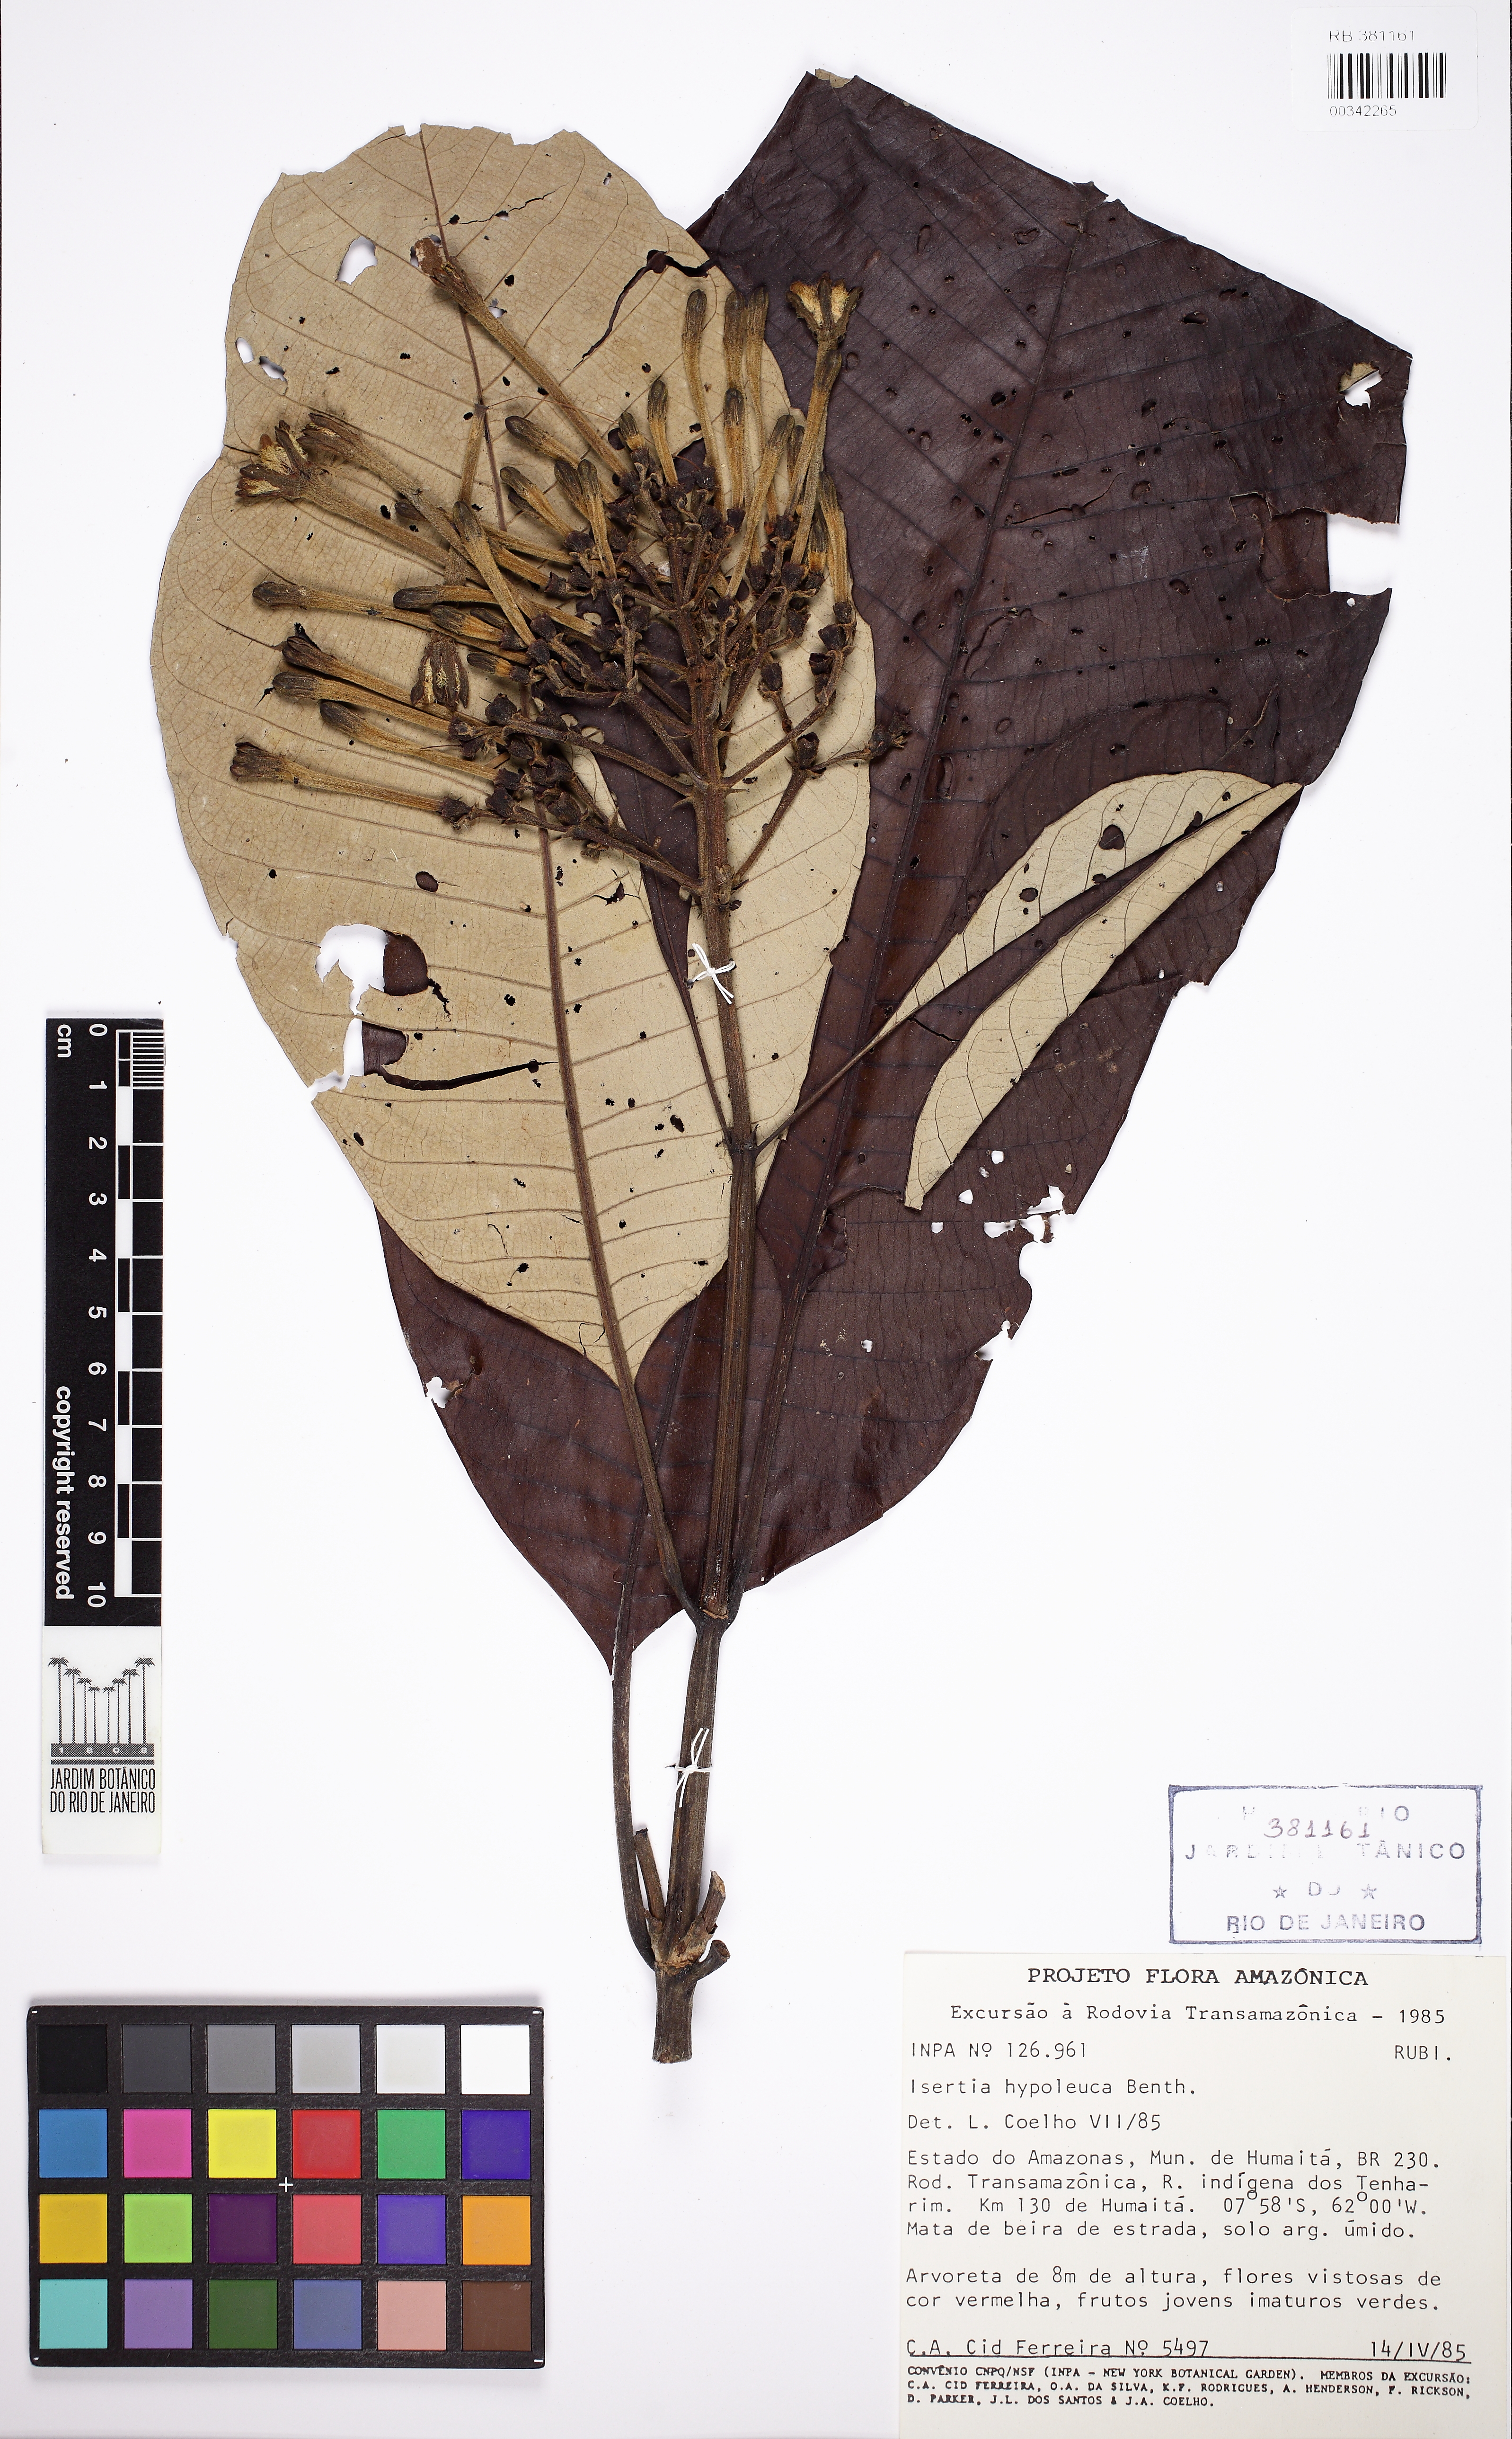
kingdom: Plantae
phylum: Tracheophyta
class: Magnoliopsida
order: Gentianales
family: Rubiaceae
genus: Isertia
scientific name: Isertia hypoleuca
